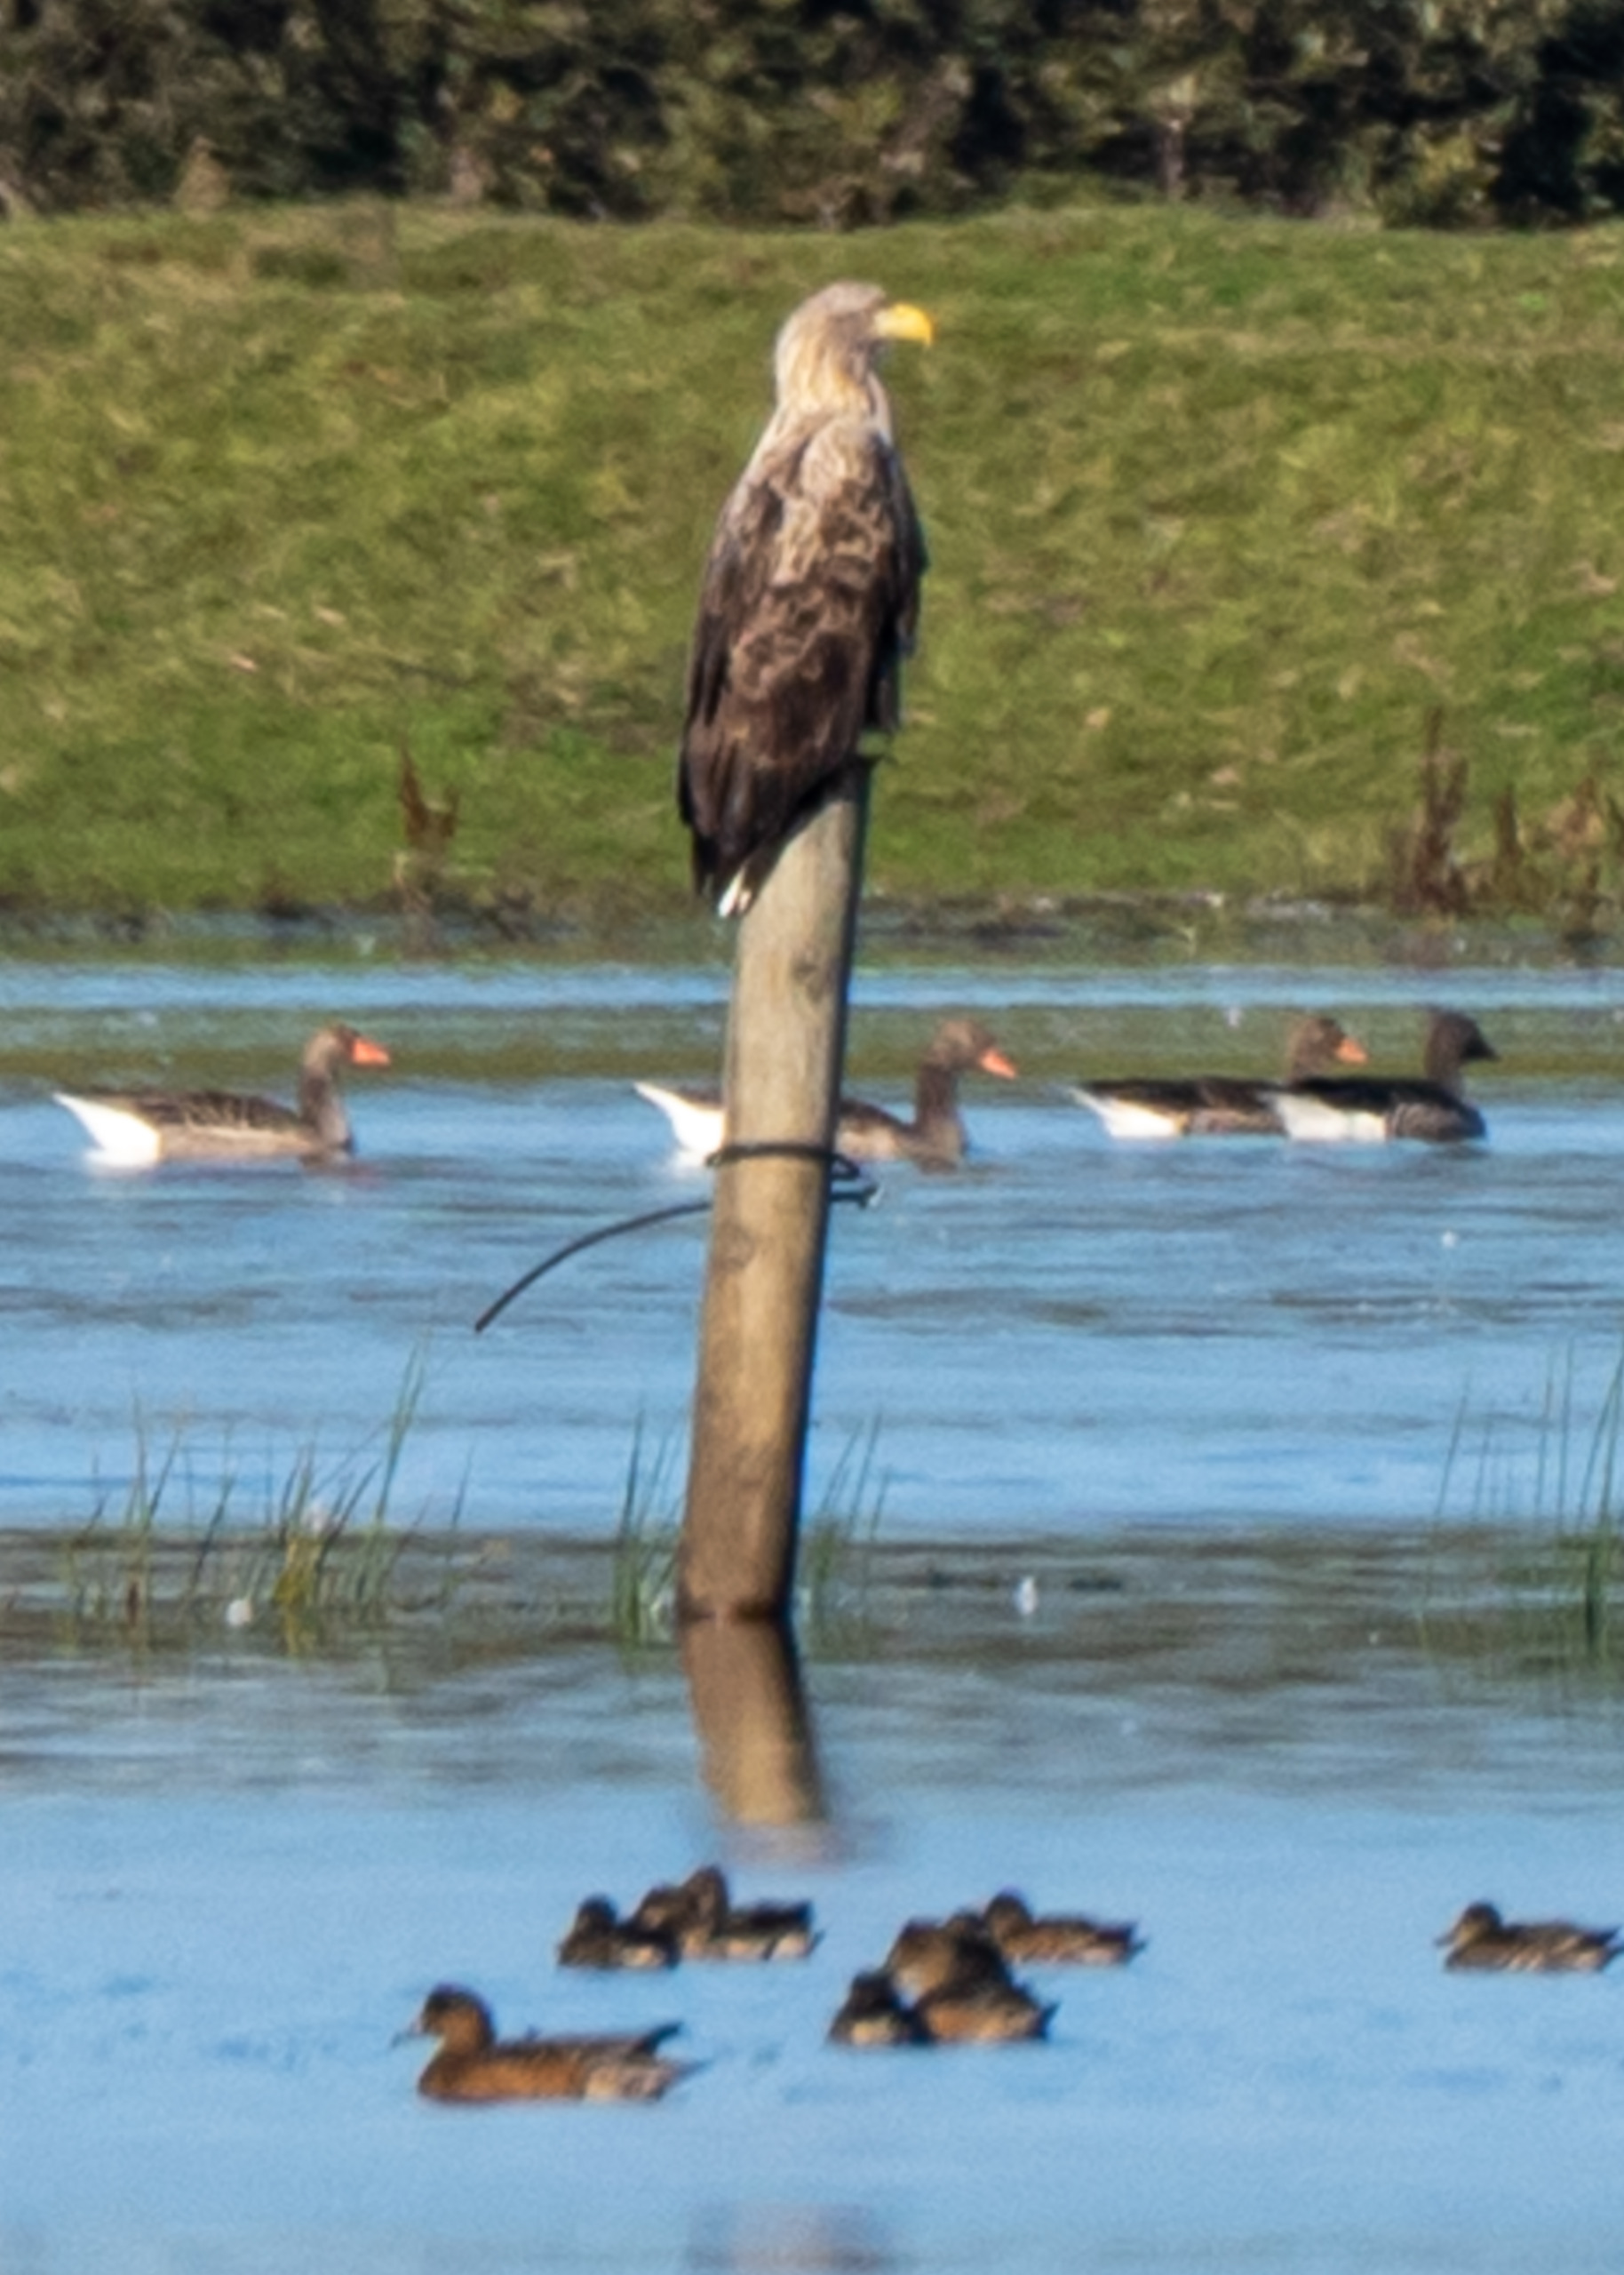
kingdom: Animalia
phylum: Chordata
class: Aves
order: Accipitriformes
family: Accipitridae
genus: Haliaeetus
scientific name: Haliaeetus albicilla
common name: Havørn
